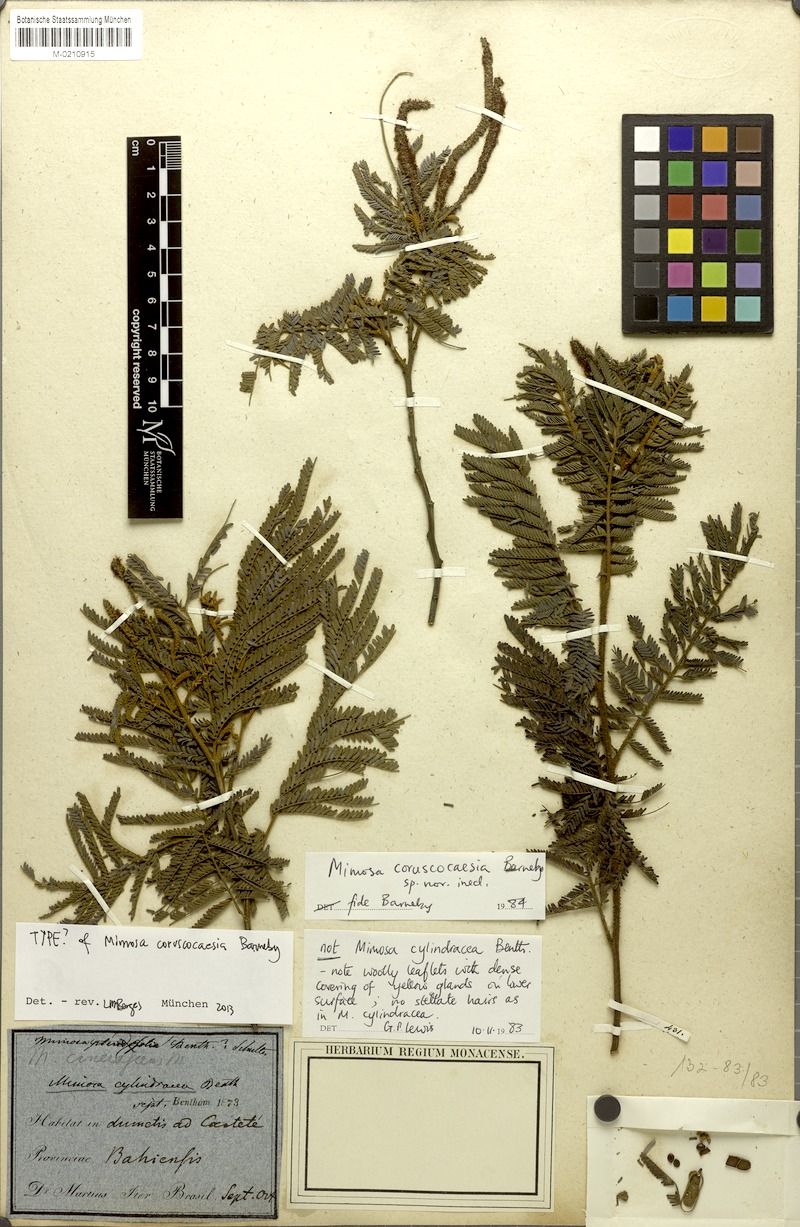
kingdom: Plantae
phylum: Tracheophyta
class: Magnoliopsida
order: Fabales
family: Fabaceae
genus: Mimosa
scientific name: Mimosa coruscocaesia
